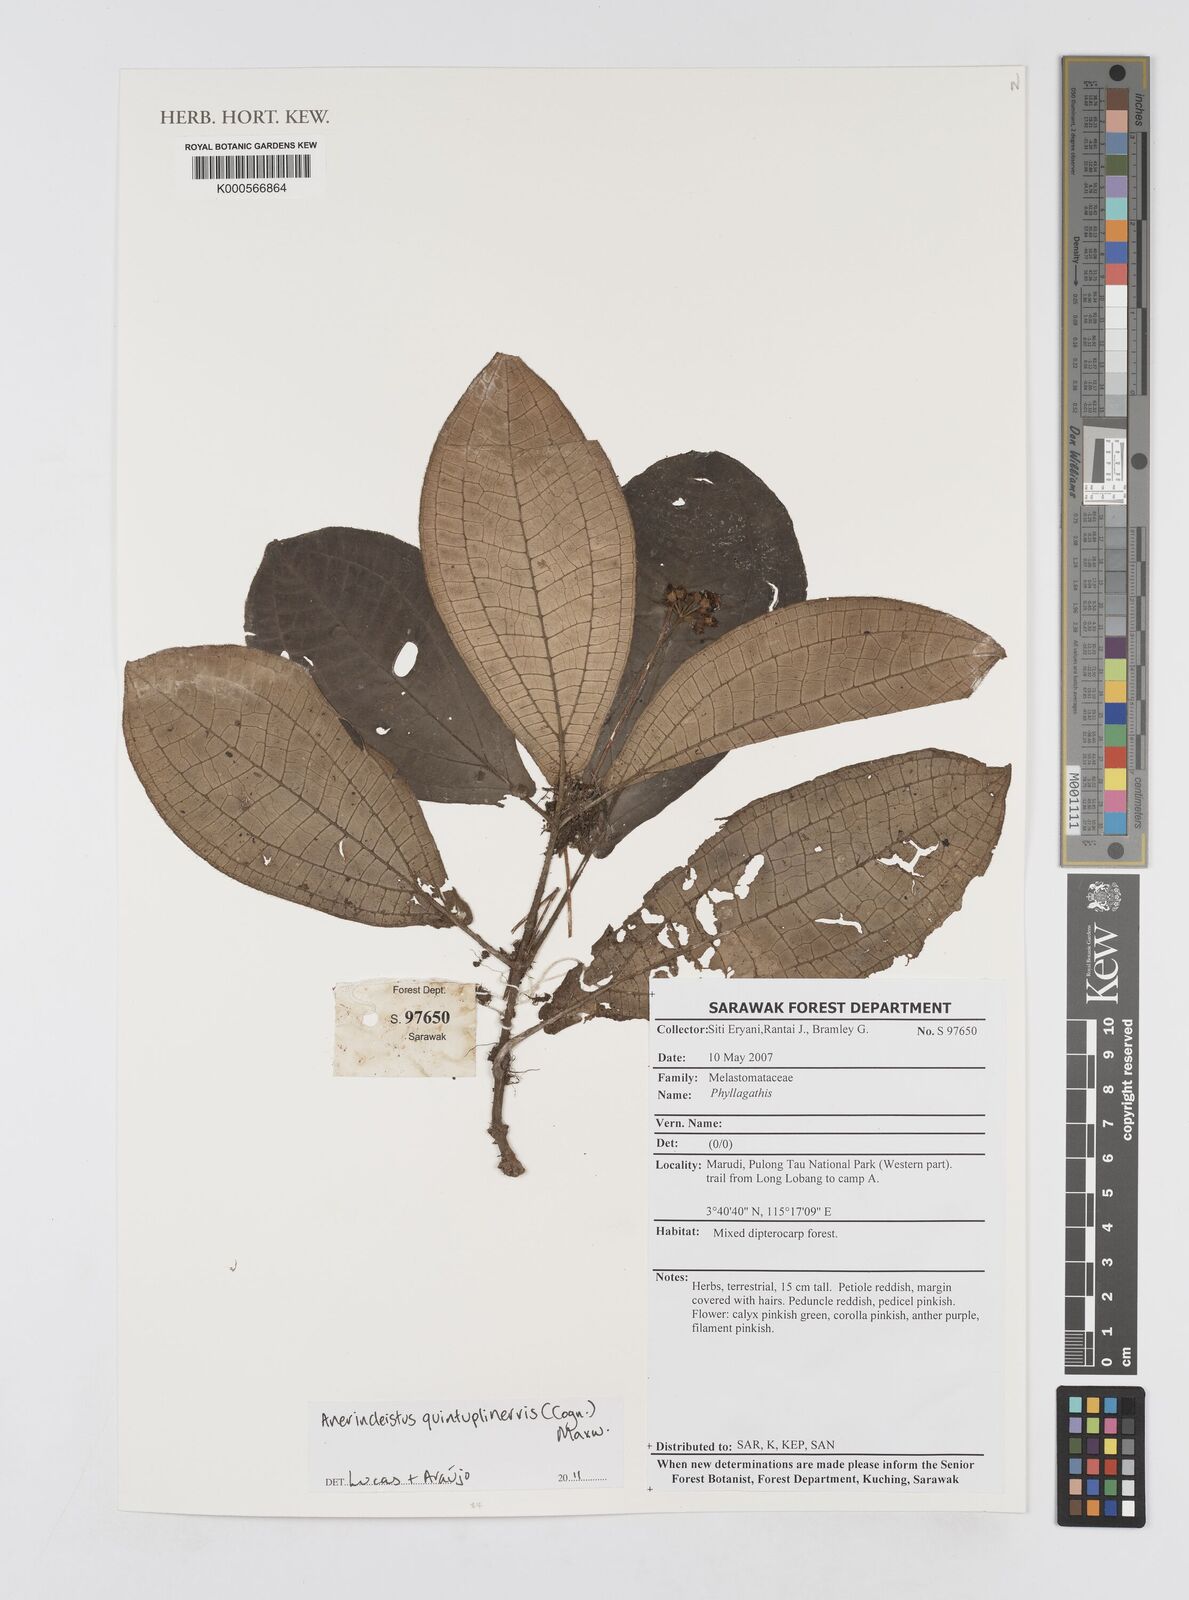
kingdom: Plantae
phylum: Tracheophyta
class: Magnoliopsida
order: Myrtales
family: Melastomataceae
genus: Anerincleistus
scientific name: Anerincleistus quintuplinervius
